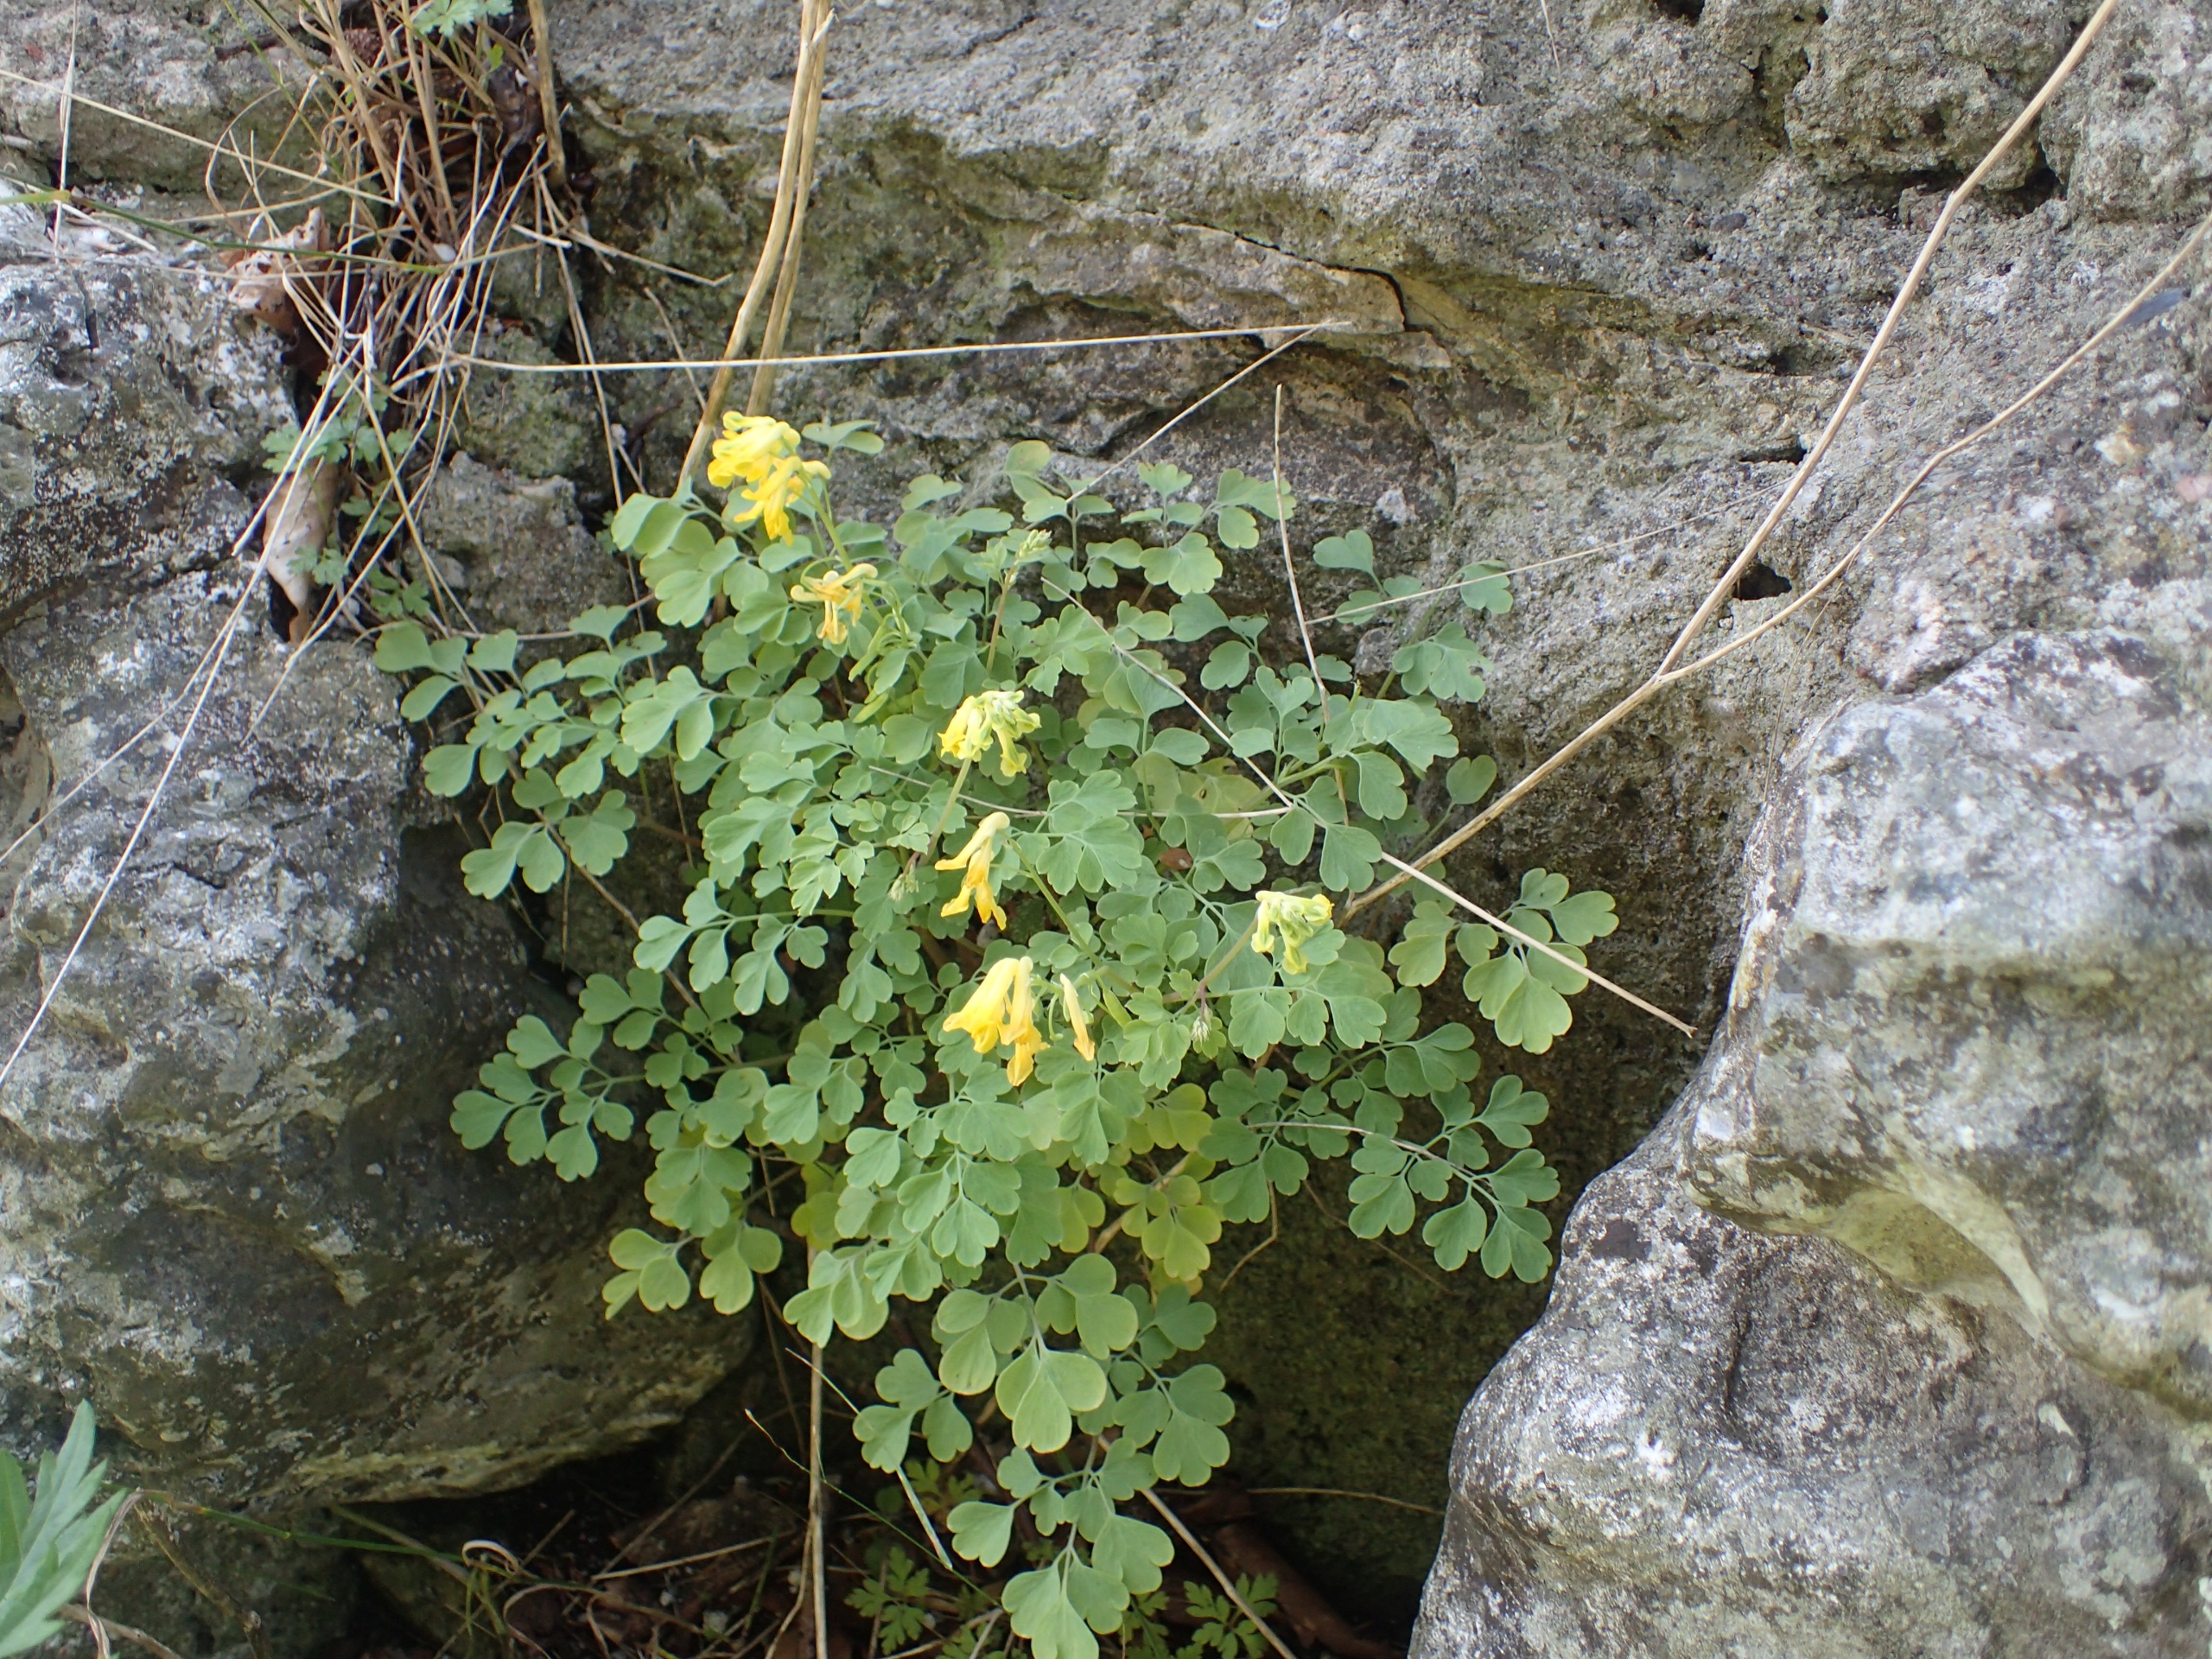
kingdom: Plantae
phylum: Tracheophyta
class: Magnoliopsida
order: Ranunculales
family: Papaveraceae
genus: Pseudofumaria
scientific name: Pseudofumaria lutea
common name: Gul lærkespore
